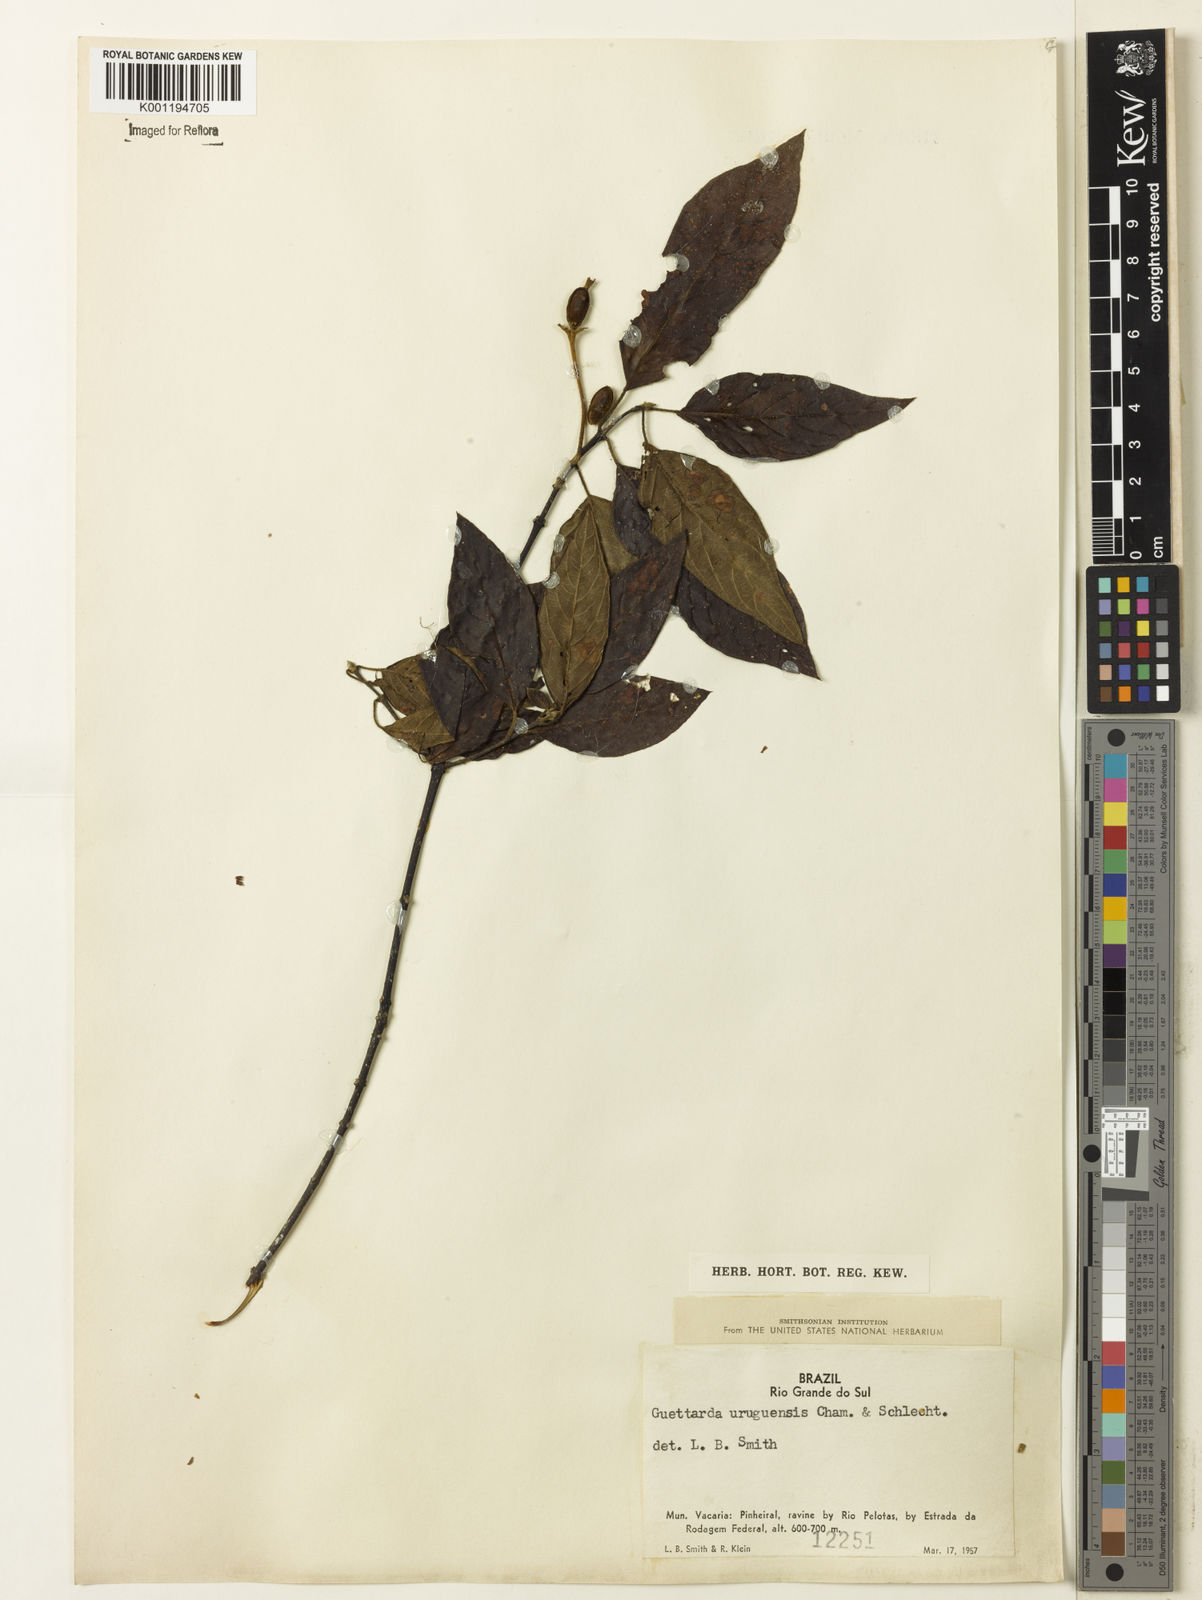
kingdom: Plantae
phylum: Tracheophyta
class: Magnoliopsida
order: Gentianales
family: Rubiaceae
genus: Guettarda
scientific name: Guettarda uruguensis
